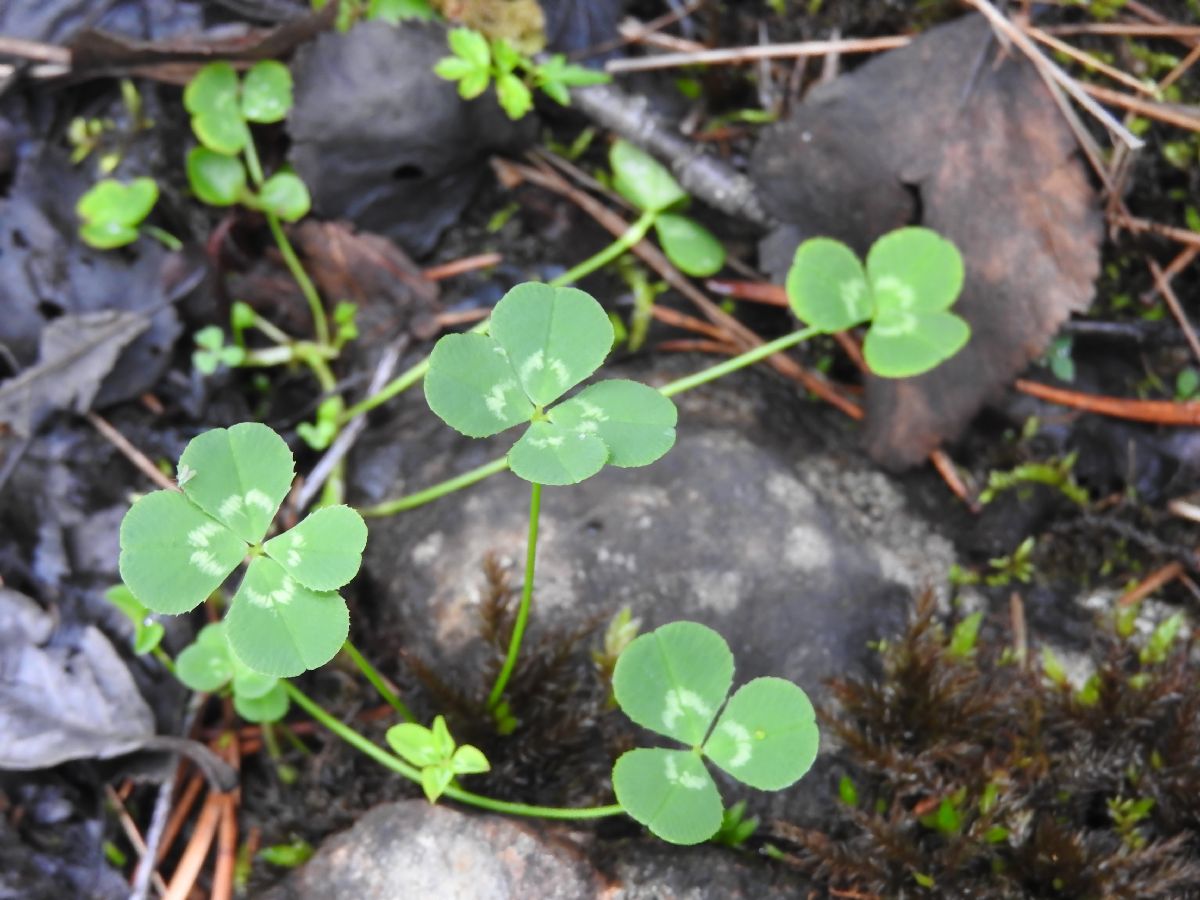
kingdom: Plantae
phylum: Tracheophyta
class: Magnoliopsida
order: Fabales
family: Fabaceae
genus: Trifolium
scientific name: Trifolium repens
